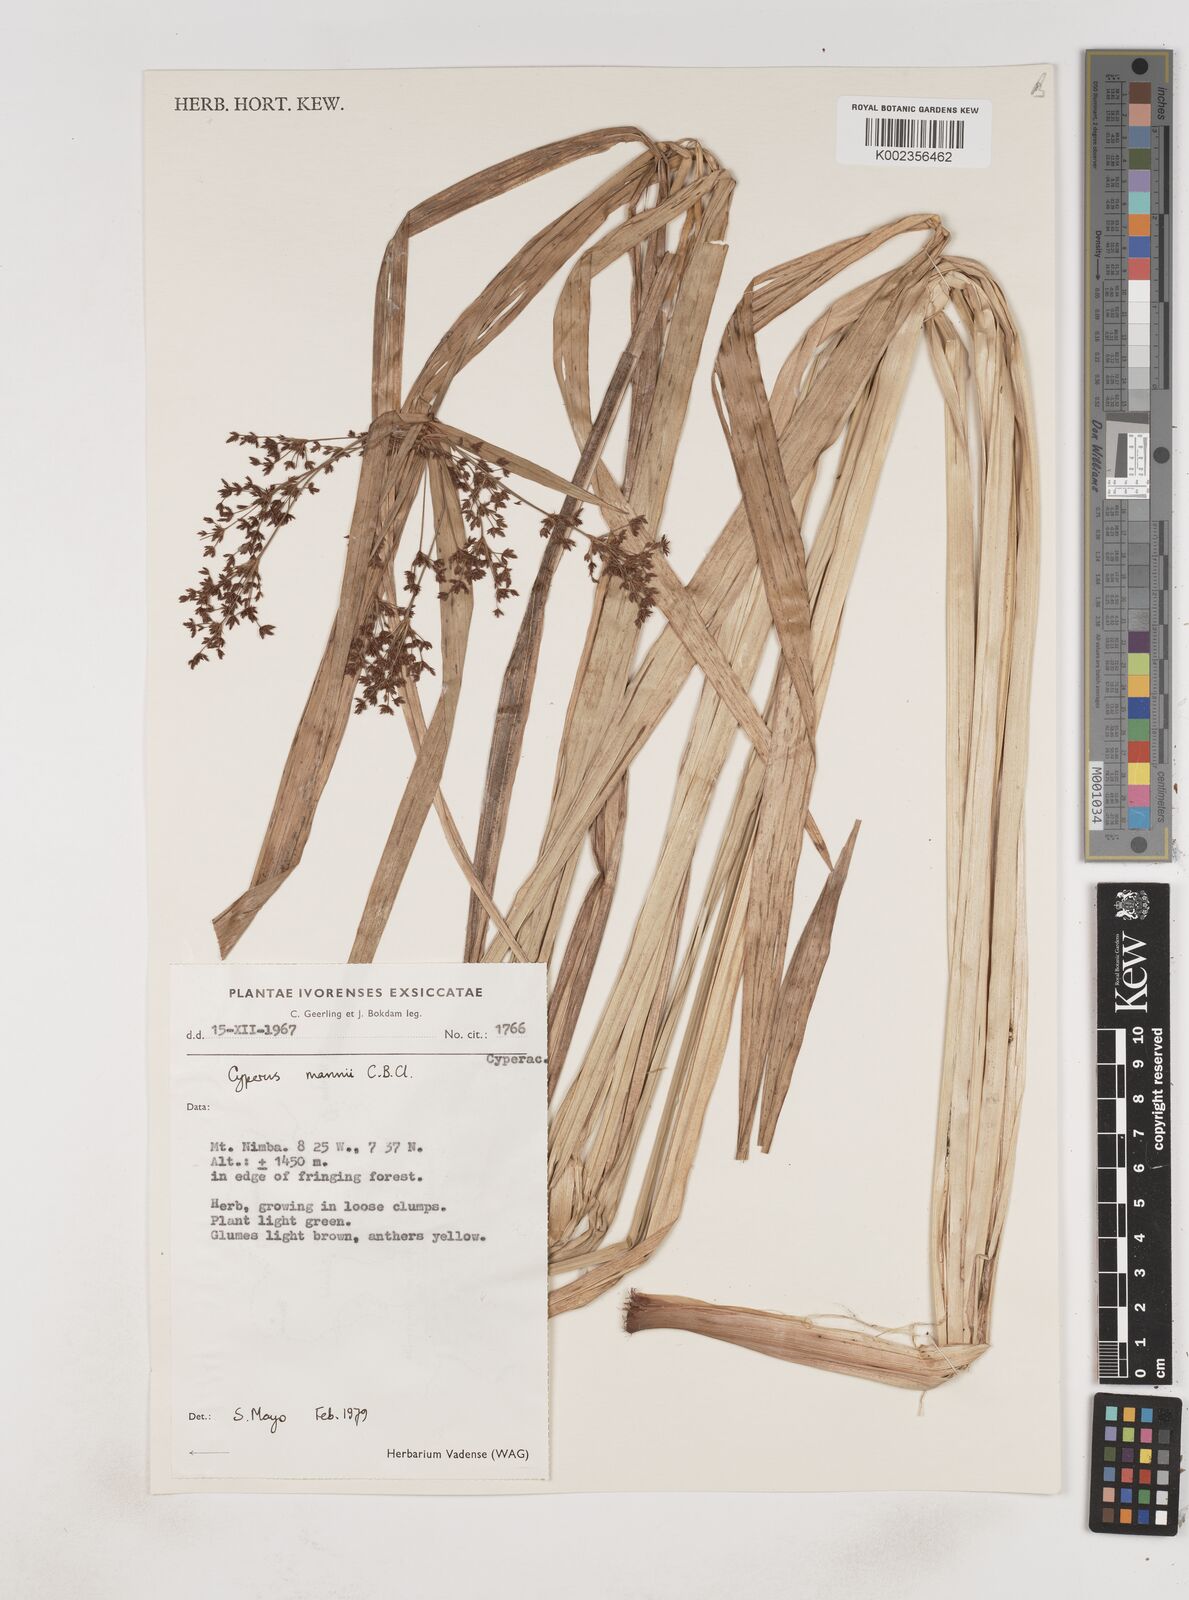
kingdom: Plantae
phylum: Tracheophyta
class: Liliopsida
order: Poales
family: Cyperaceae
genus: Cyperus
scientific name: Cyperus baronii
